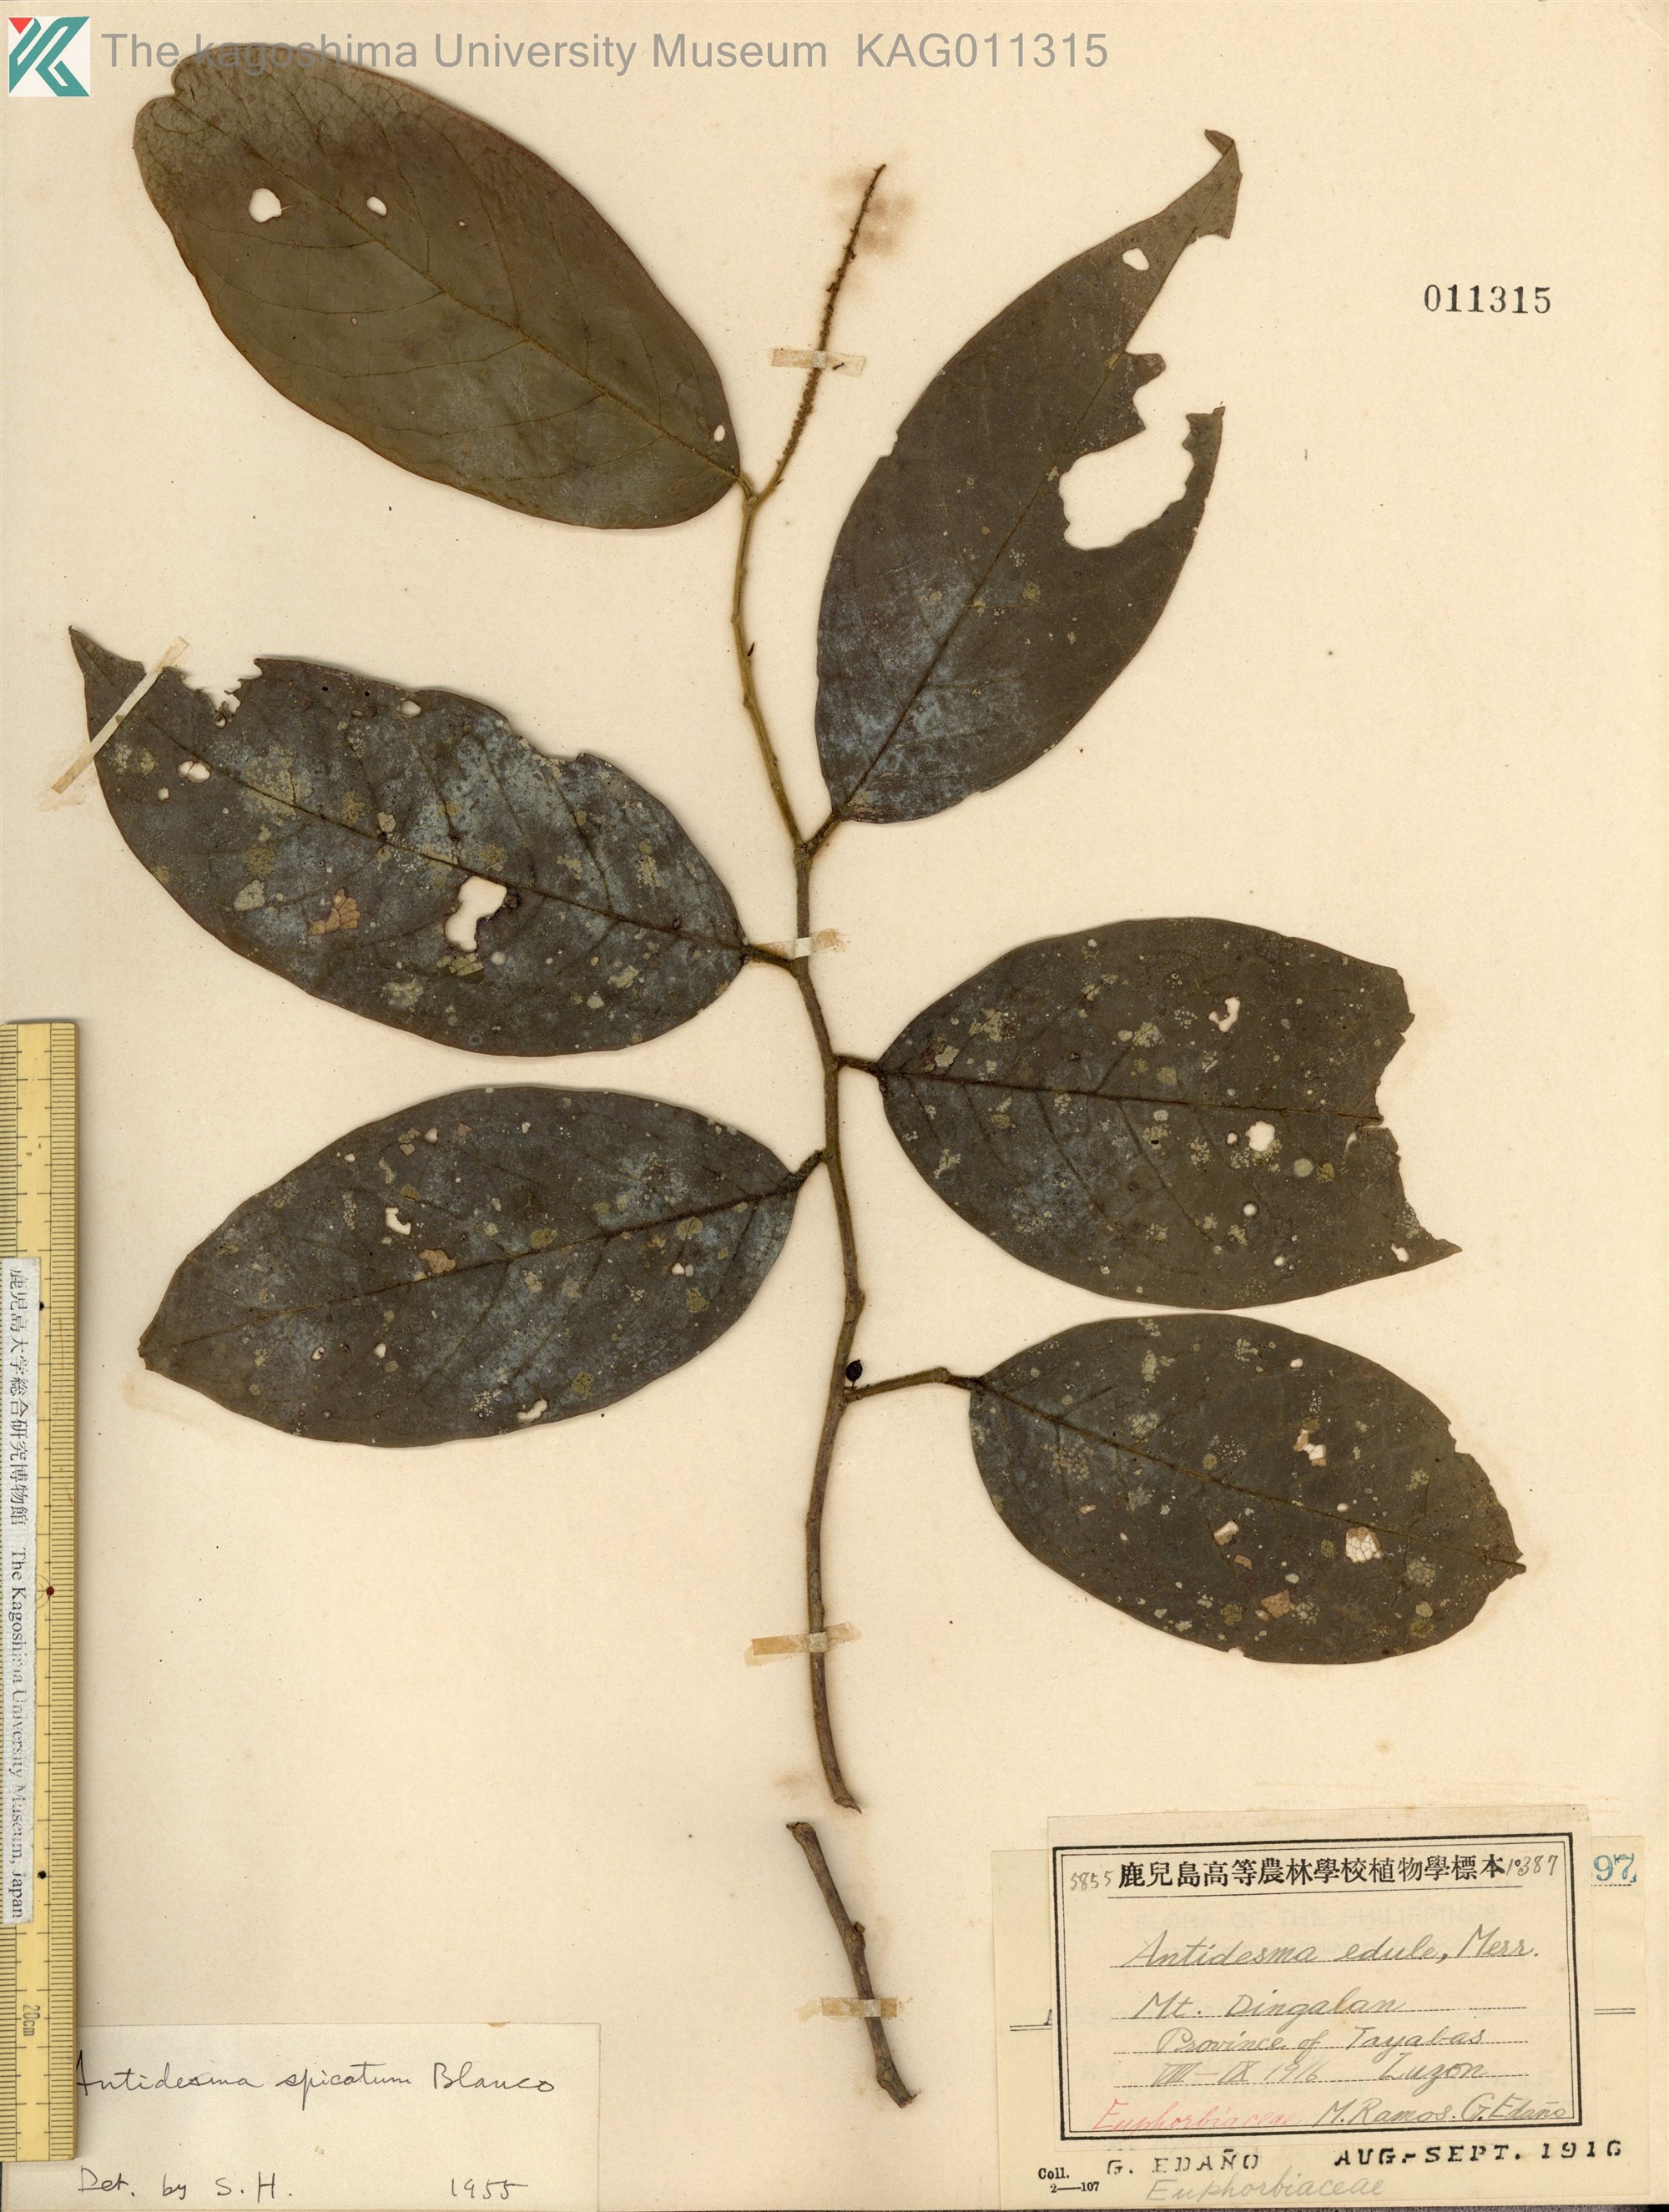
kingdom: Plantae
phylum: Tracheophyta
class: Magnoliopsida
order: Malpighiales
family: Phyllanthaceae
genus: Antidesma
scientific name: Antidesma ghaesembilla
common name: Black currant-tree
